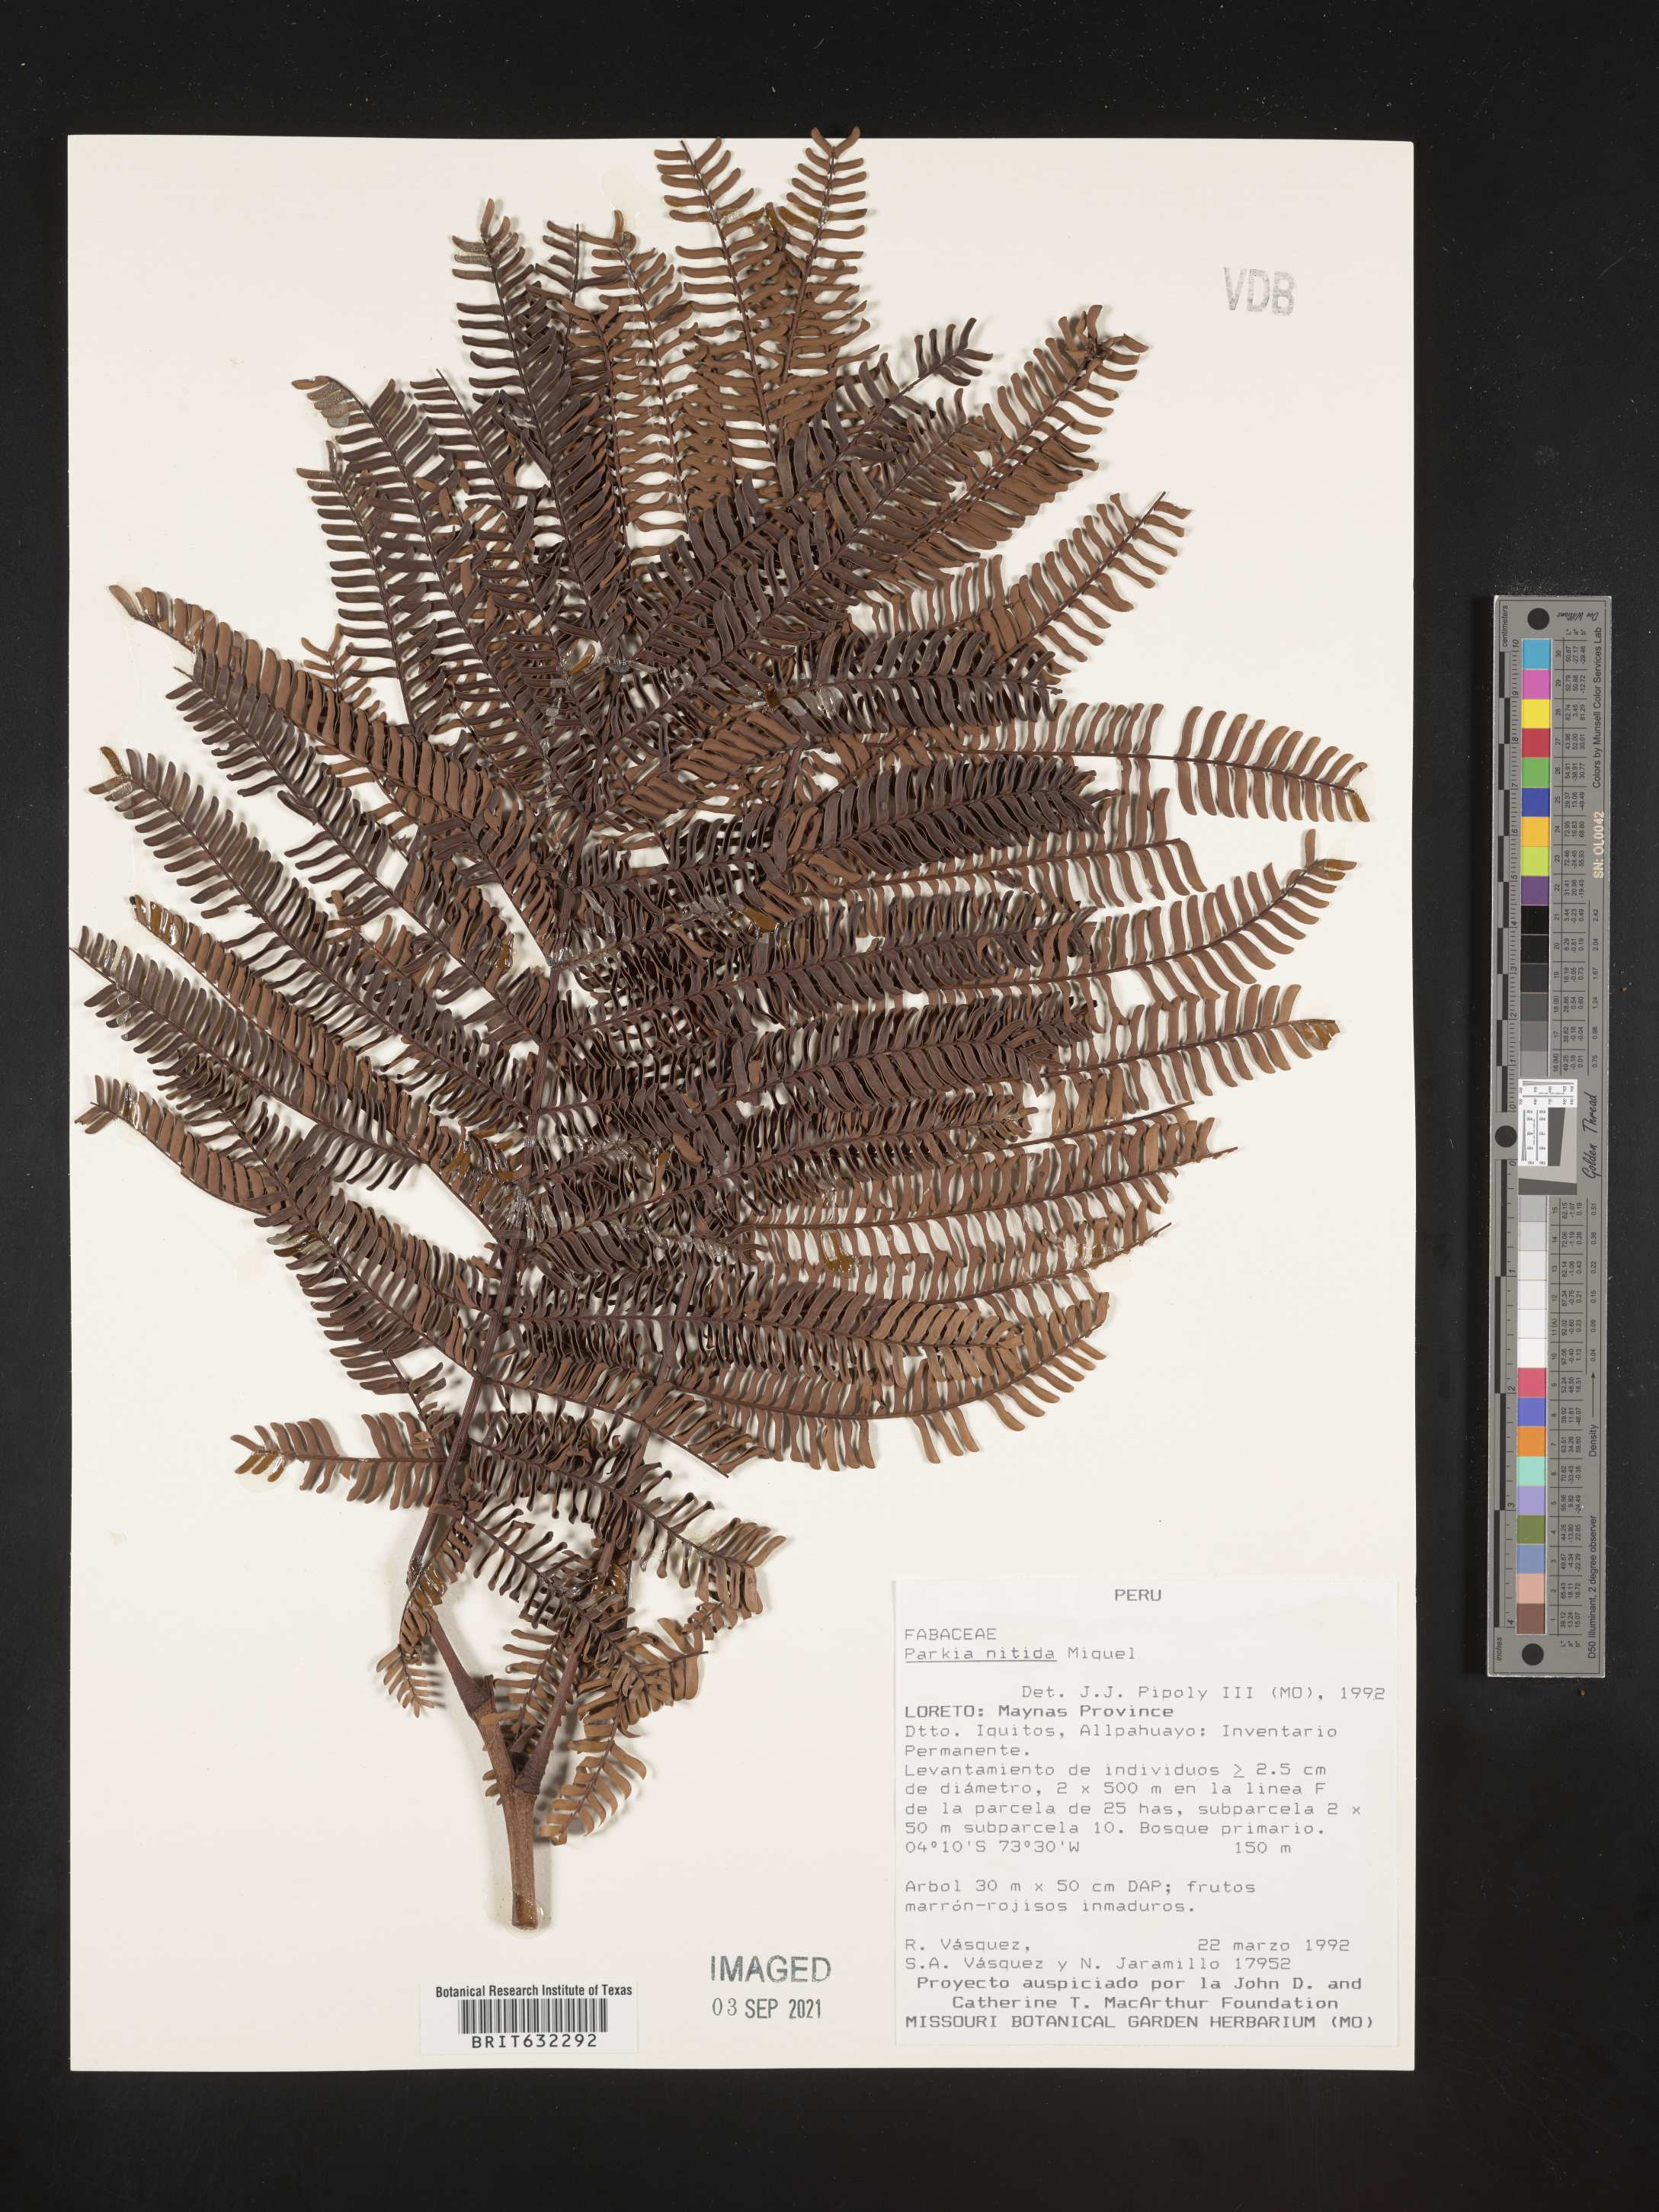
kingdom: Plantae
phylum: Tracheophyta
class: Magnoliopsida
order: Fabales
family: Fabaceae
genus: Parkia
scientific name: Parkia
